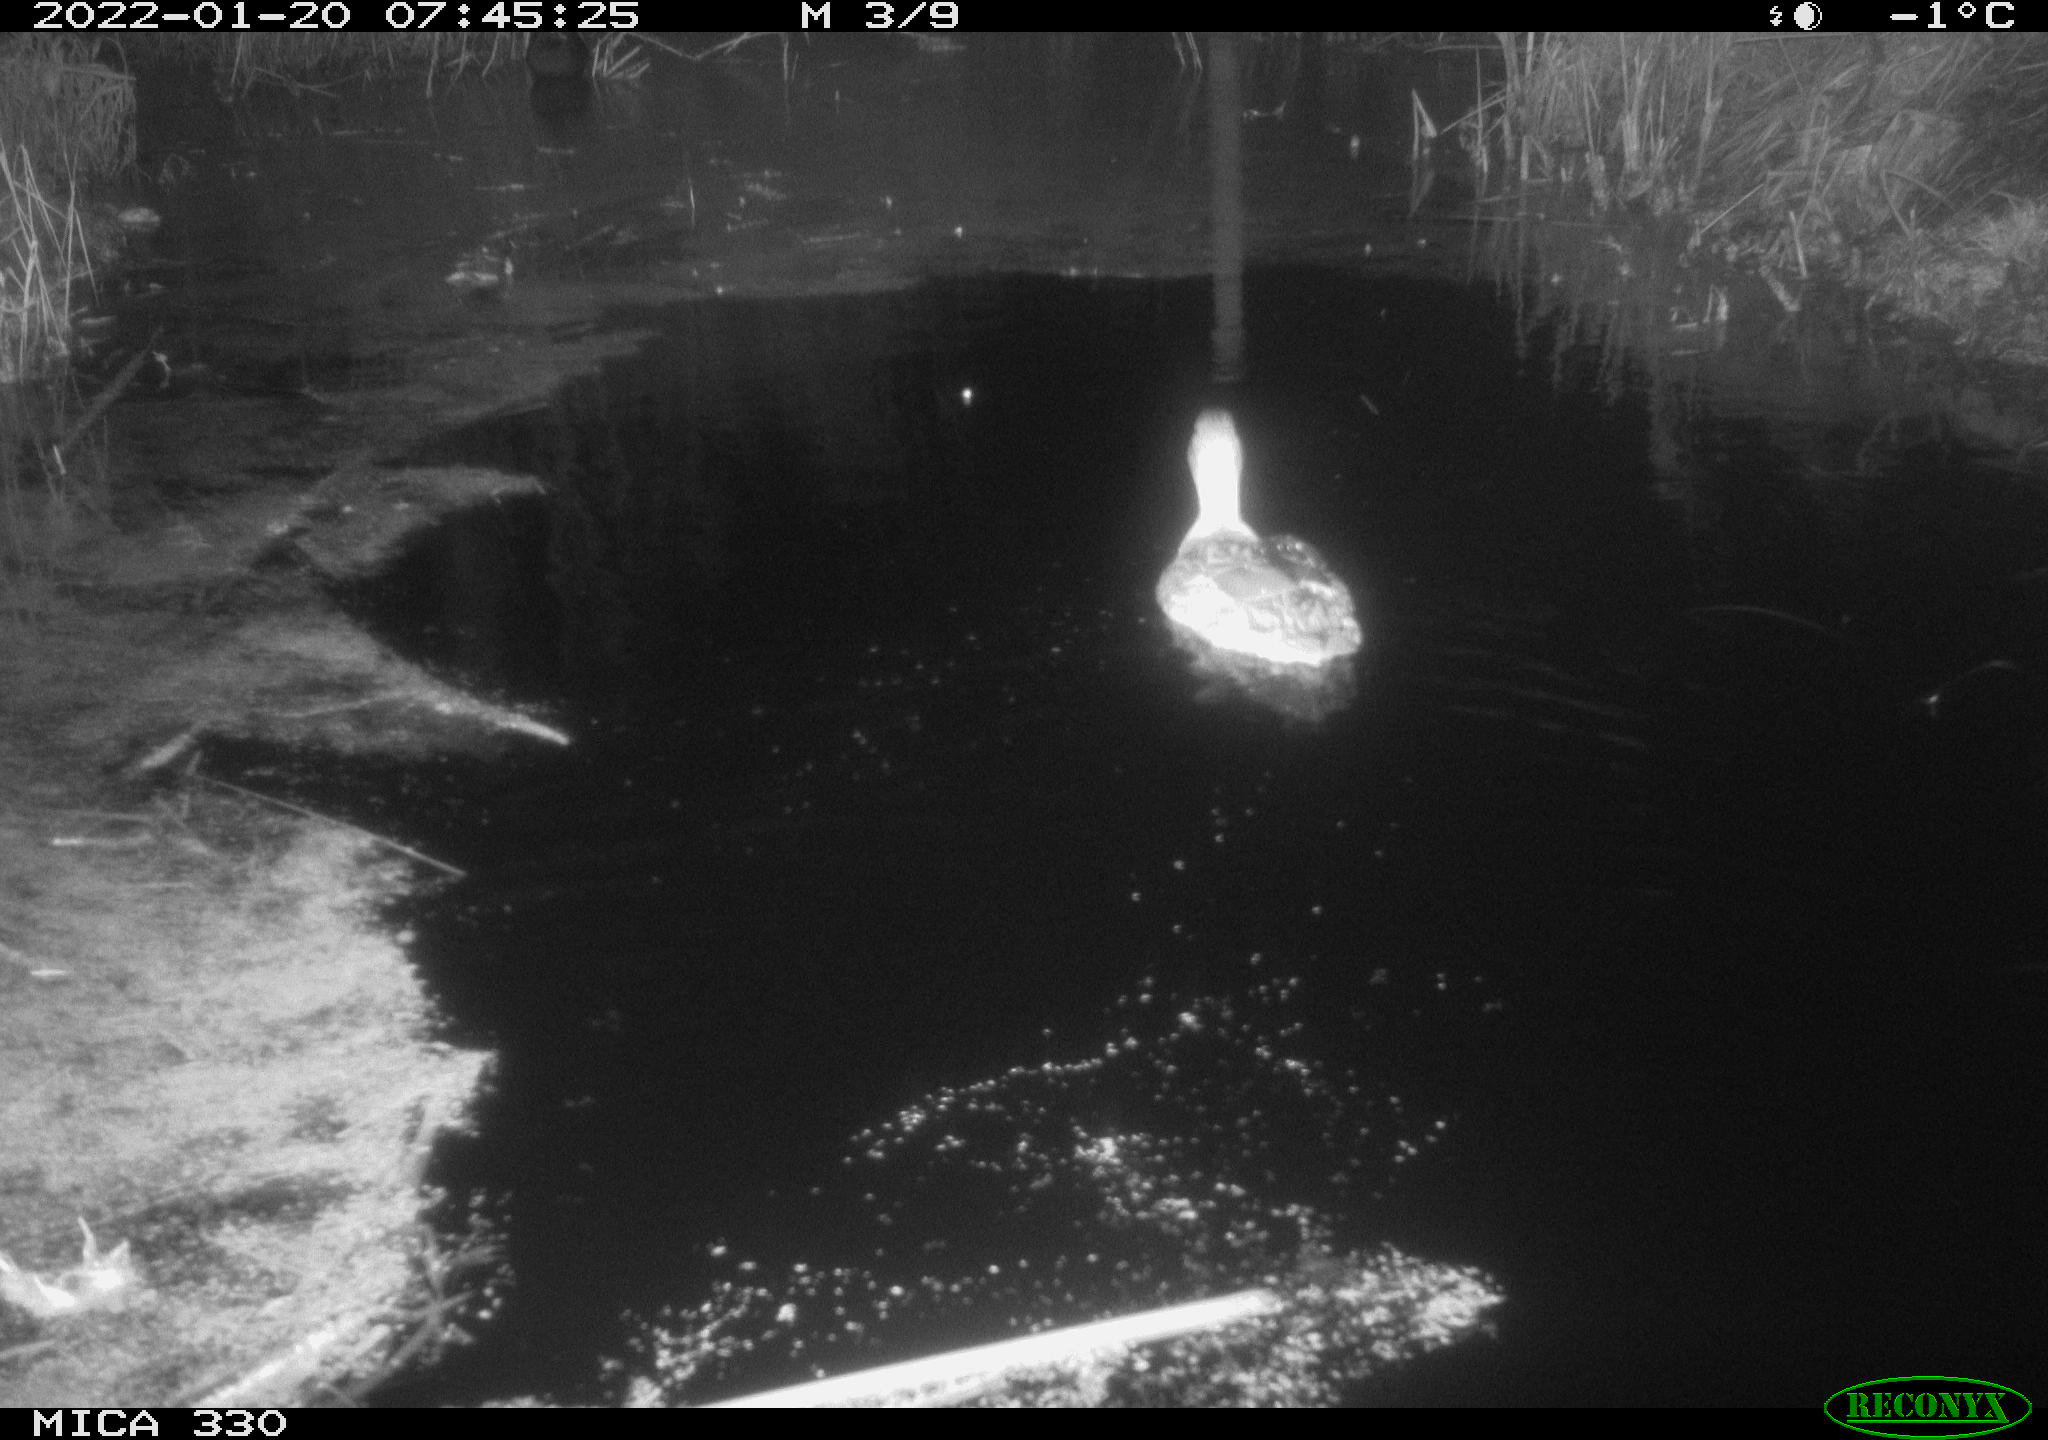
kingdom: Animalia
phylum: Chordata
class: Aves
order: Anseriformes
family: Anatidae
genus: Anas
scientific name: Anas platyrhynchos
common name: Mallard
